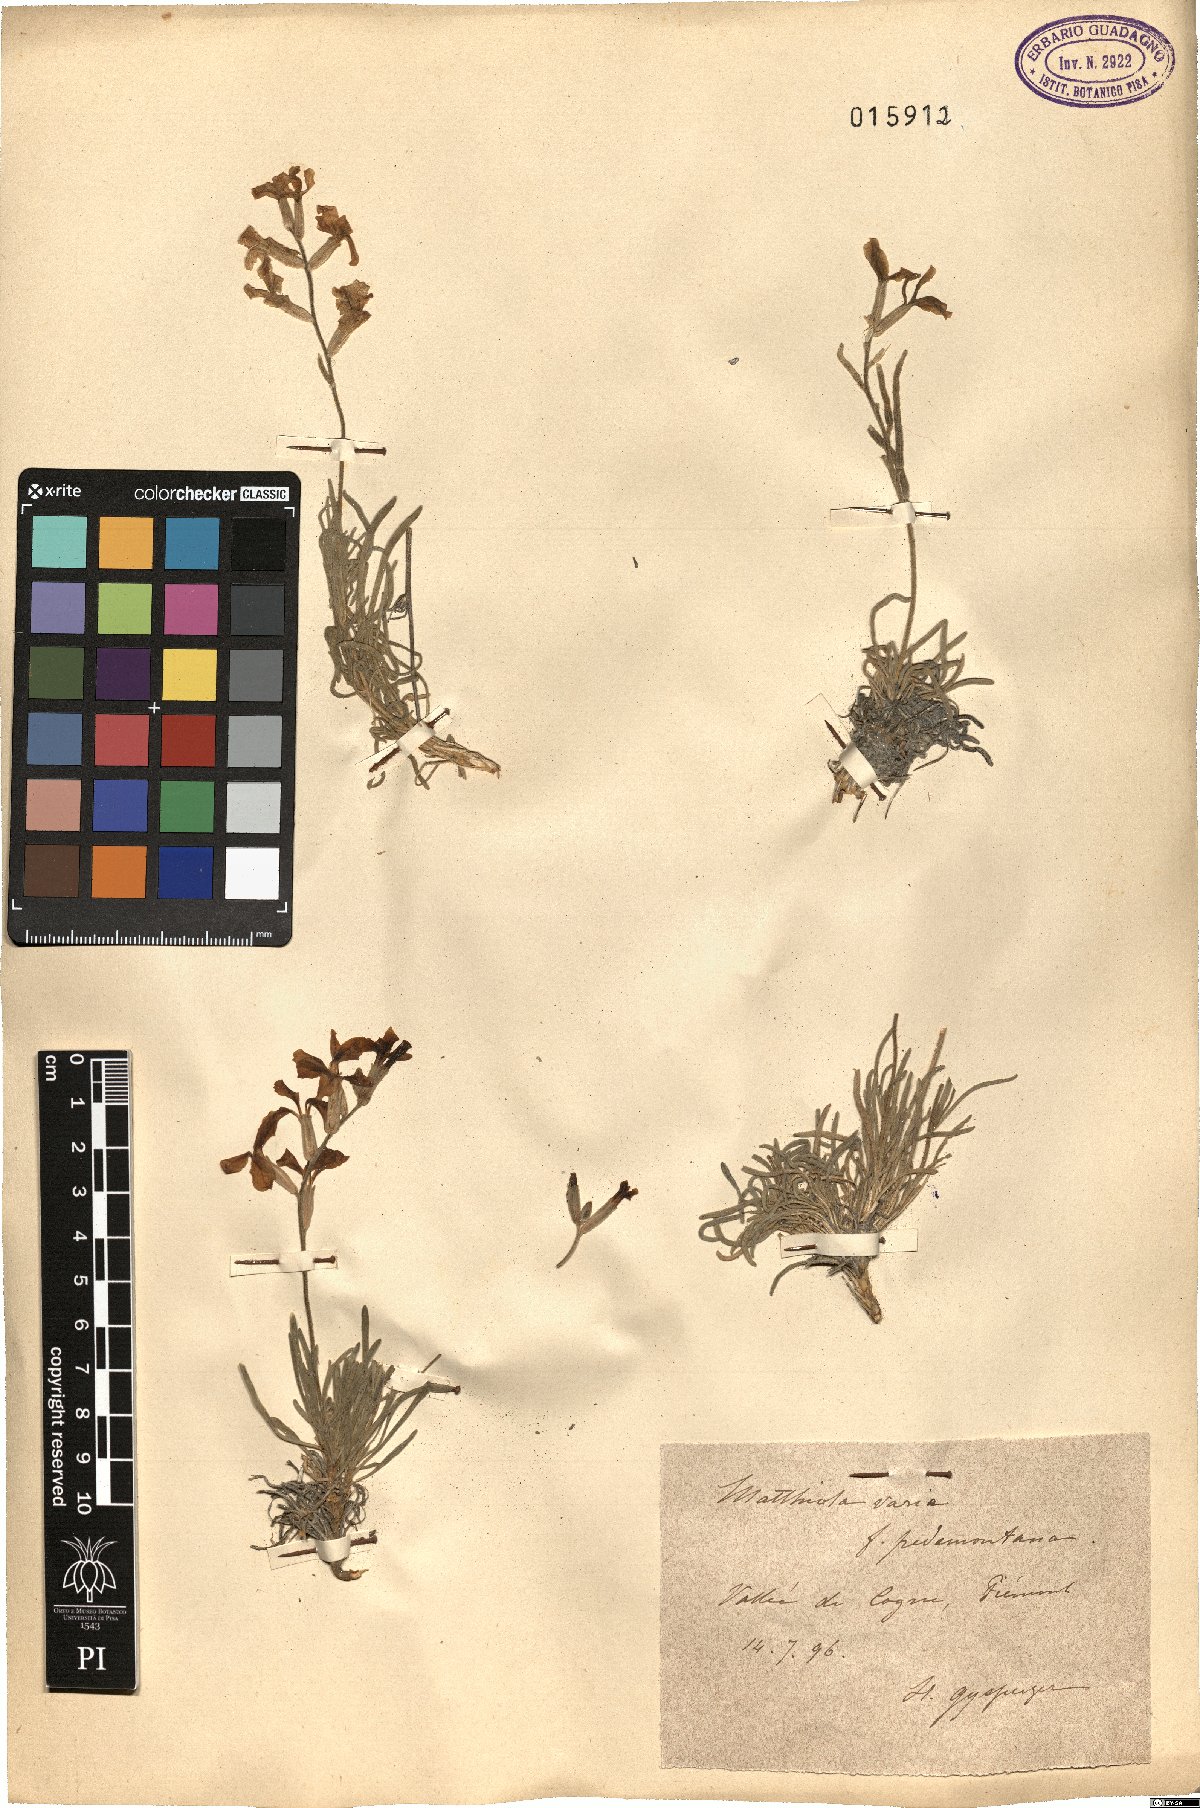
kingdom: Plantae
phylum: Tracheophyta
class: Magnoliopsida
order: Brassicales
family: Brassicaceae
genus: Matthiola
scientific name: Matthiola fruticulosa
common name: Sad stock
